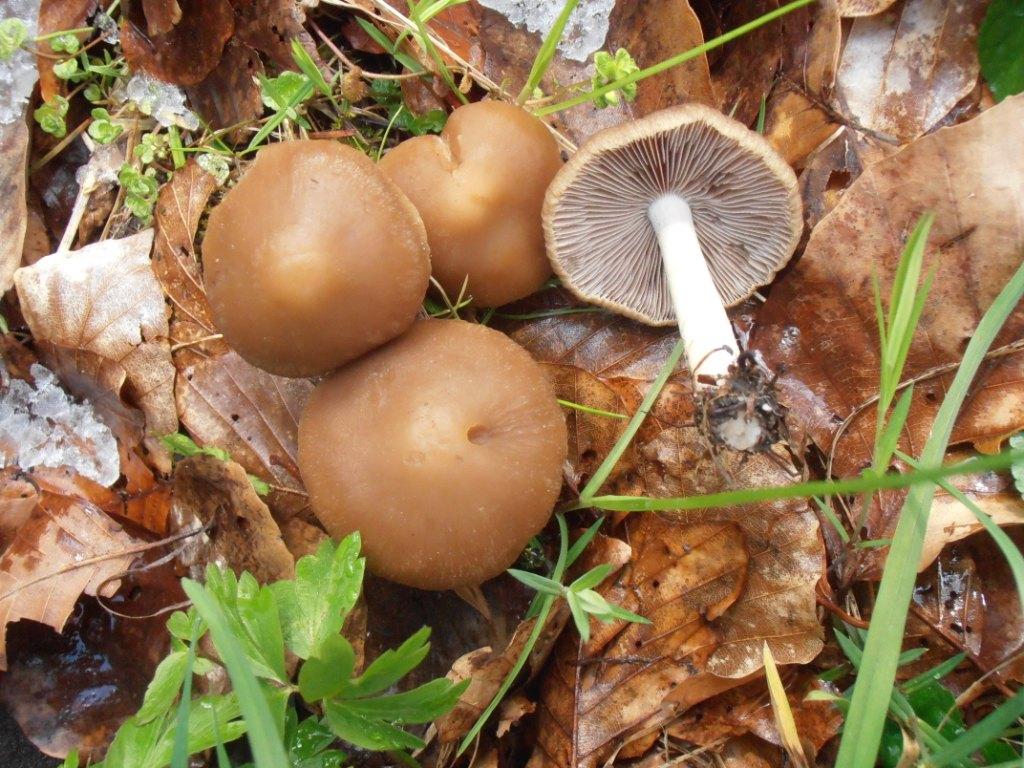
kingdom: Fungi
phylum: Basidiomycota
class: Agaricomycetes
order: Agaricales
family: Psathyrellaceae
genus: Psathyrella
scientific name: Psathyrella spadiceogrisea
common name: gråbrun mørkhat
